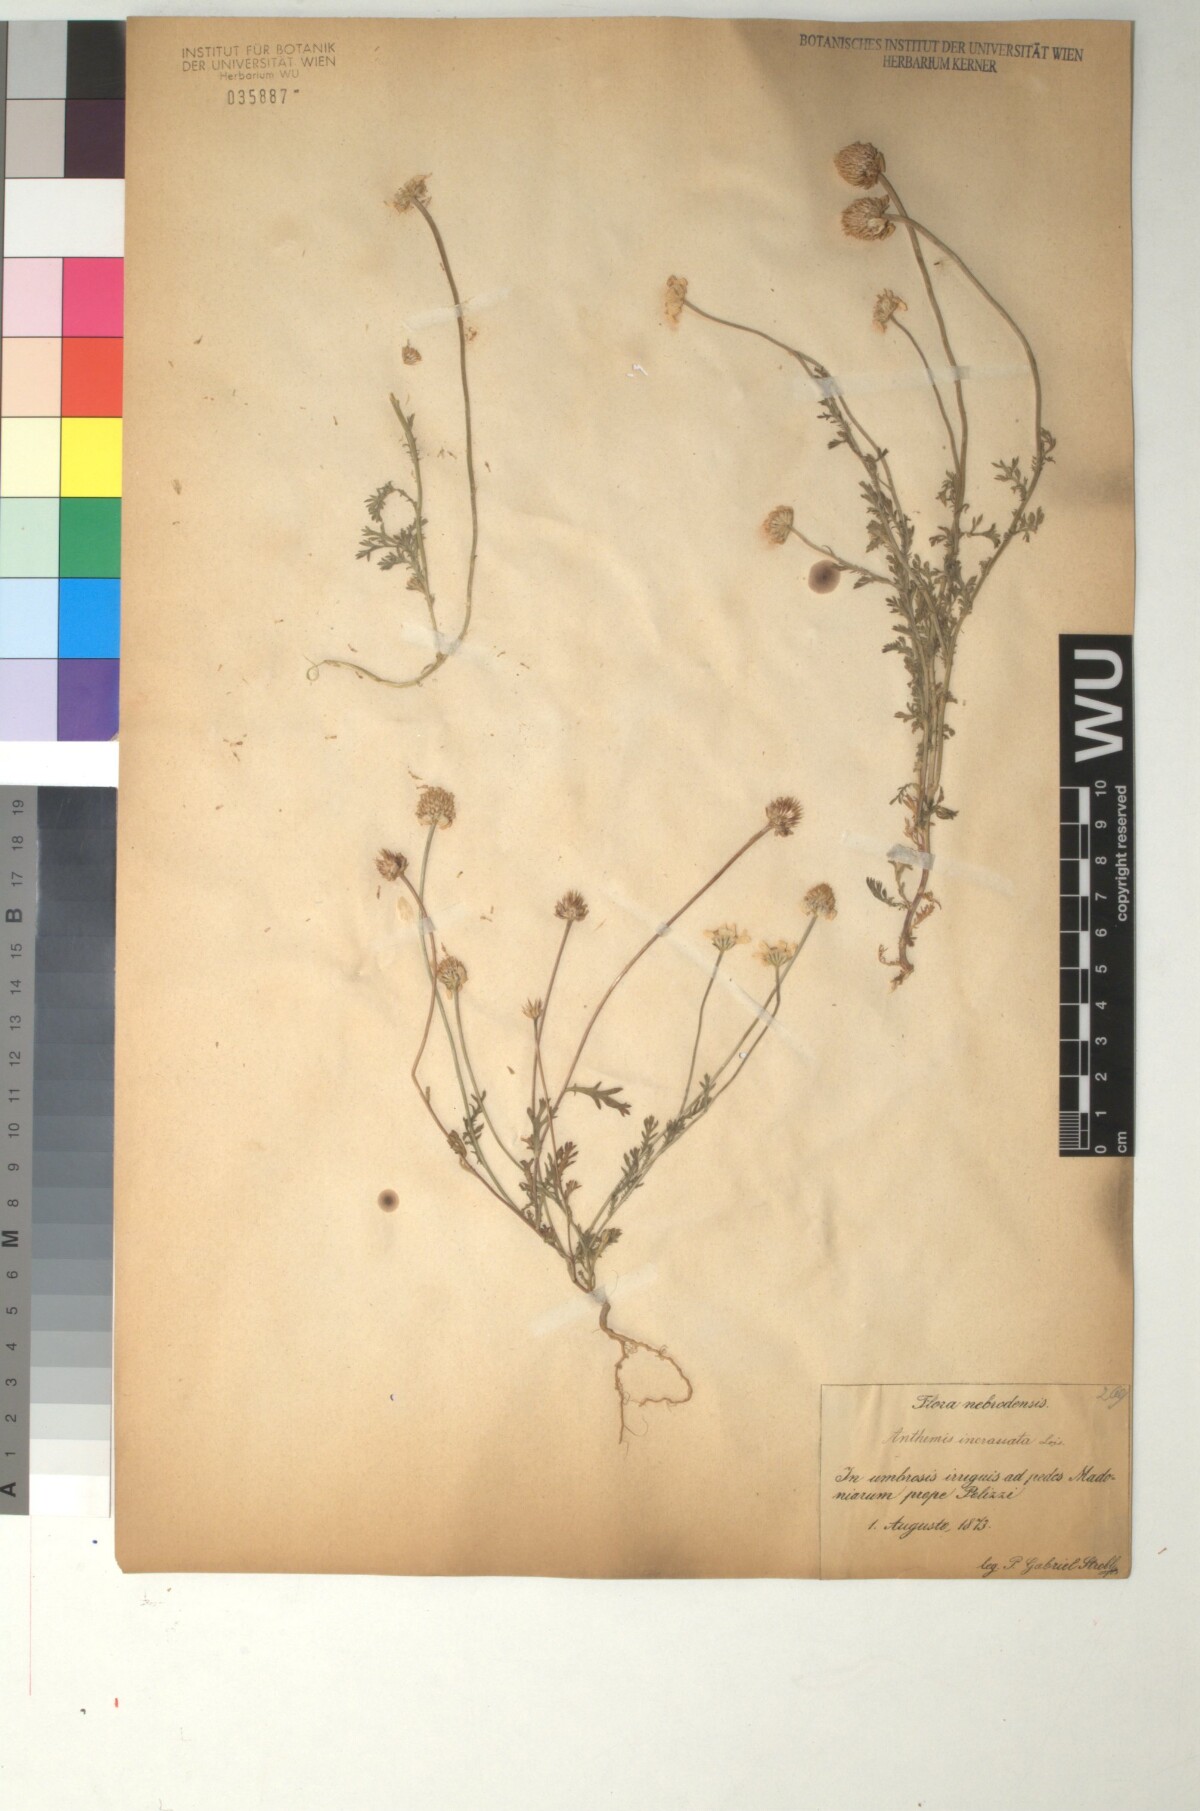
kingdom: Plantae
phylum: Tracheophyta
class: Magnoliopsida
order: Asterales
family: Asteraceae
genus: Anthemis
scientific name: Anthemis arvensis
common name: Corn chamomile
